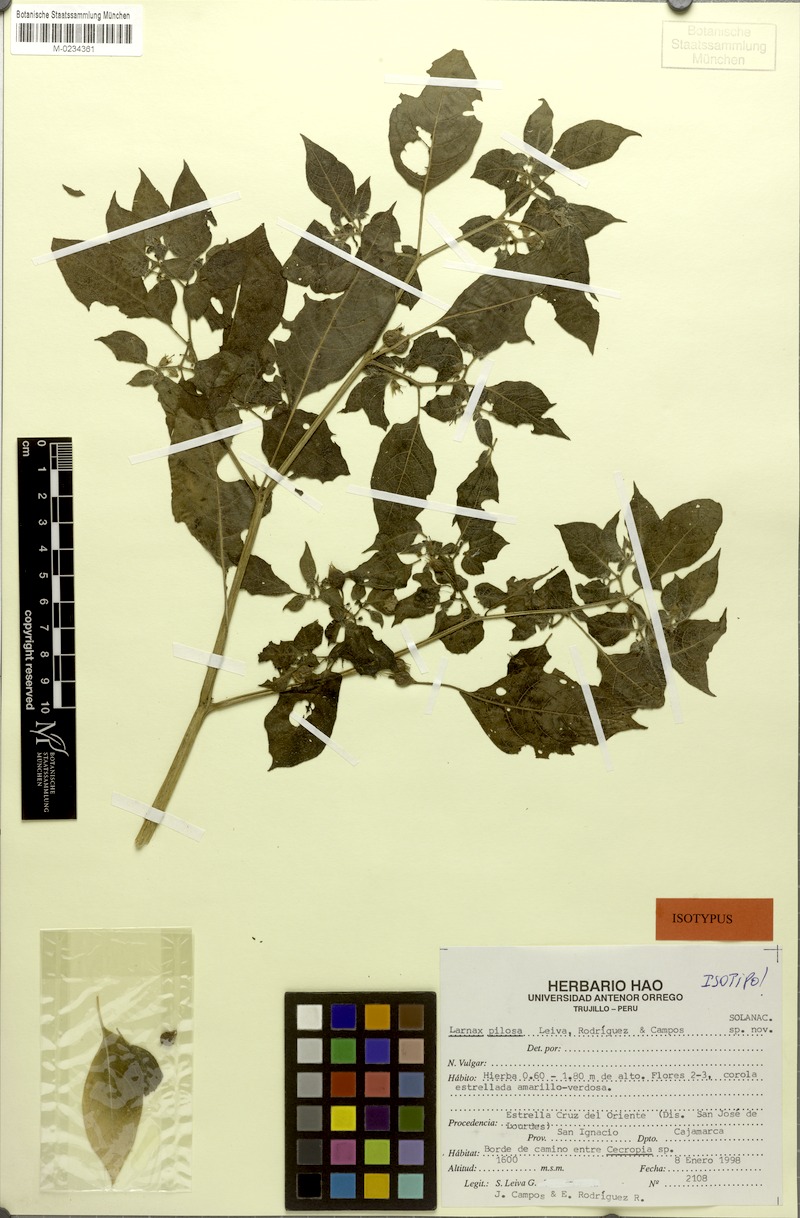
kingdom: Plantae
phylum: Tracheophyta
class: Magnoliopsida
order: Solanales
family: Solanaceae
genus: Deprea
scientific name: Deprea pilosa
